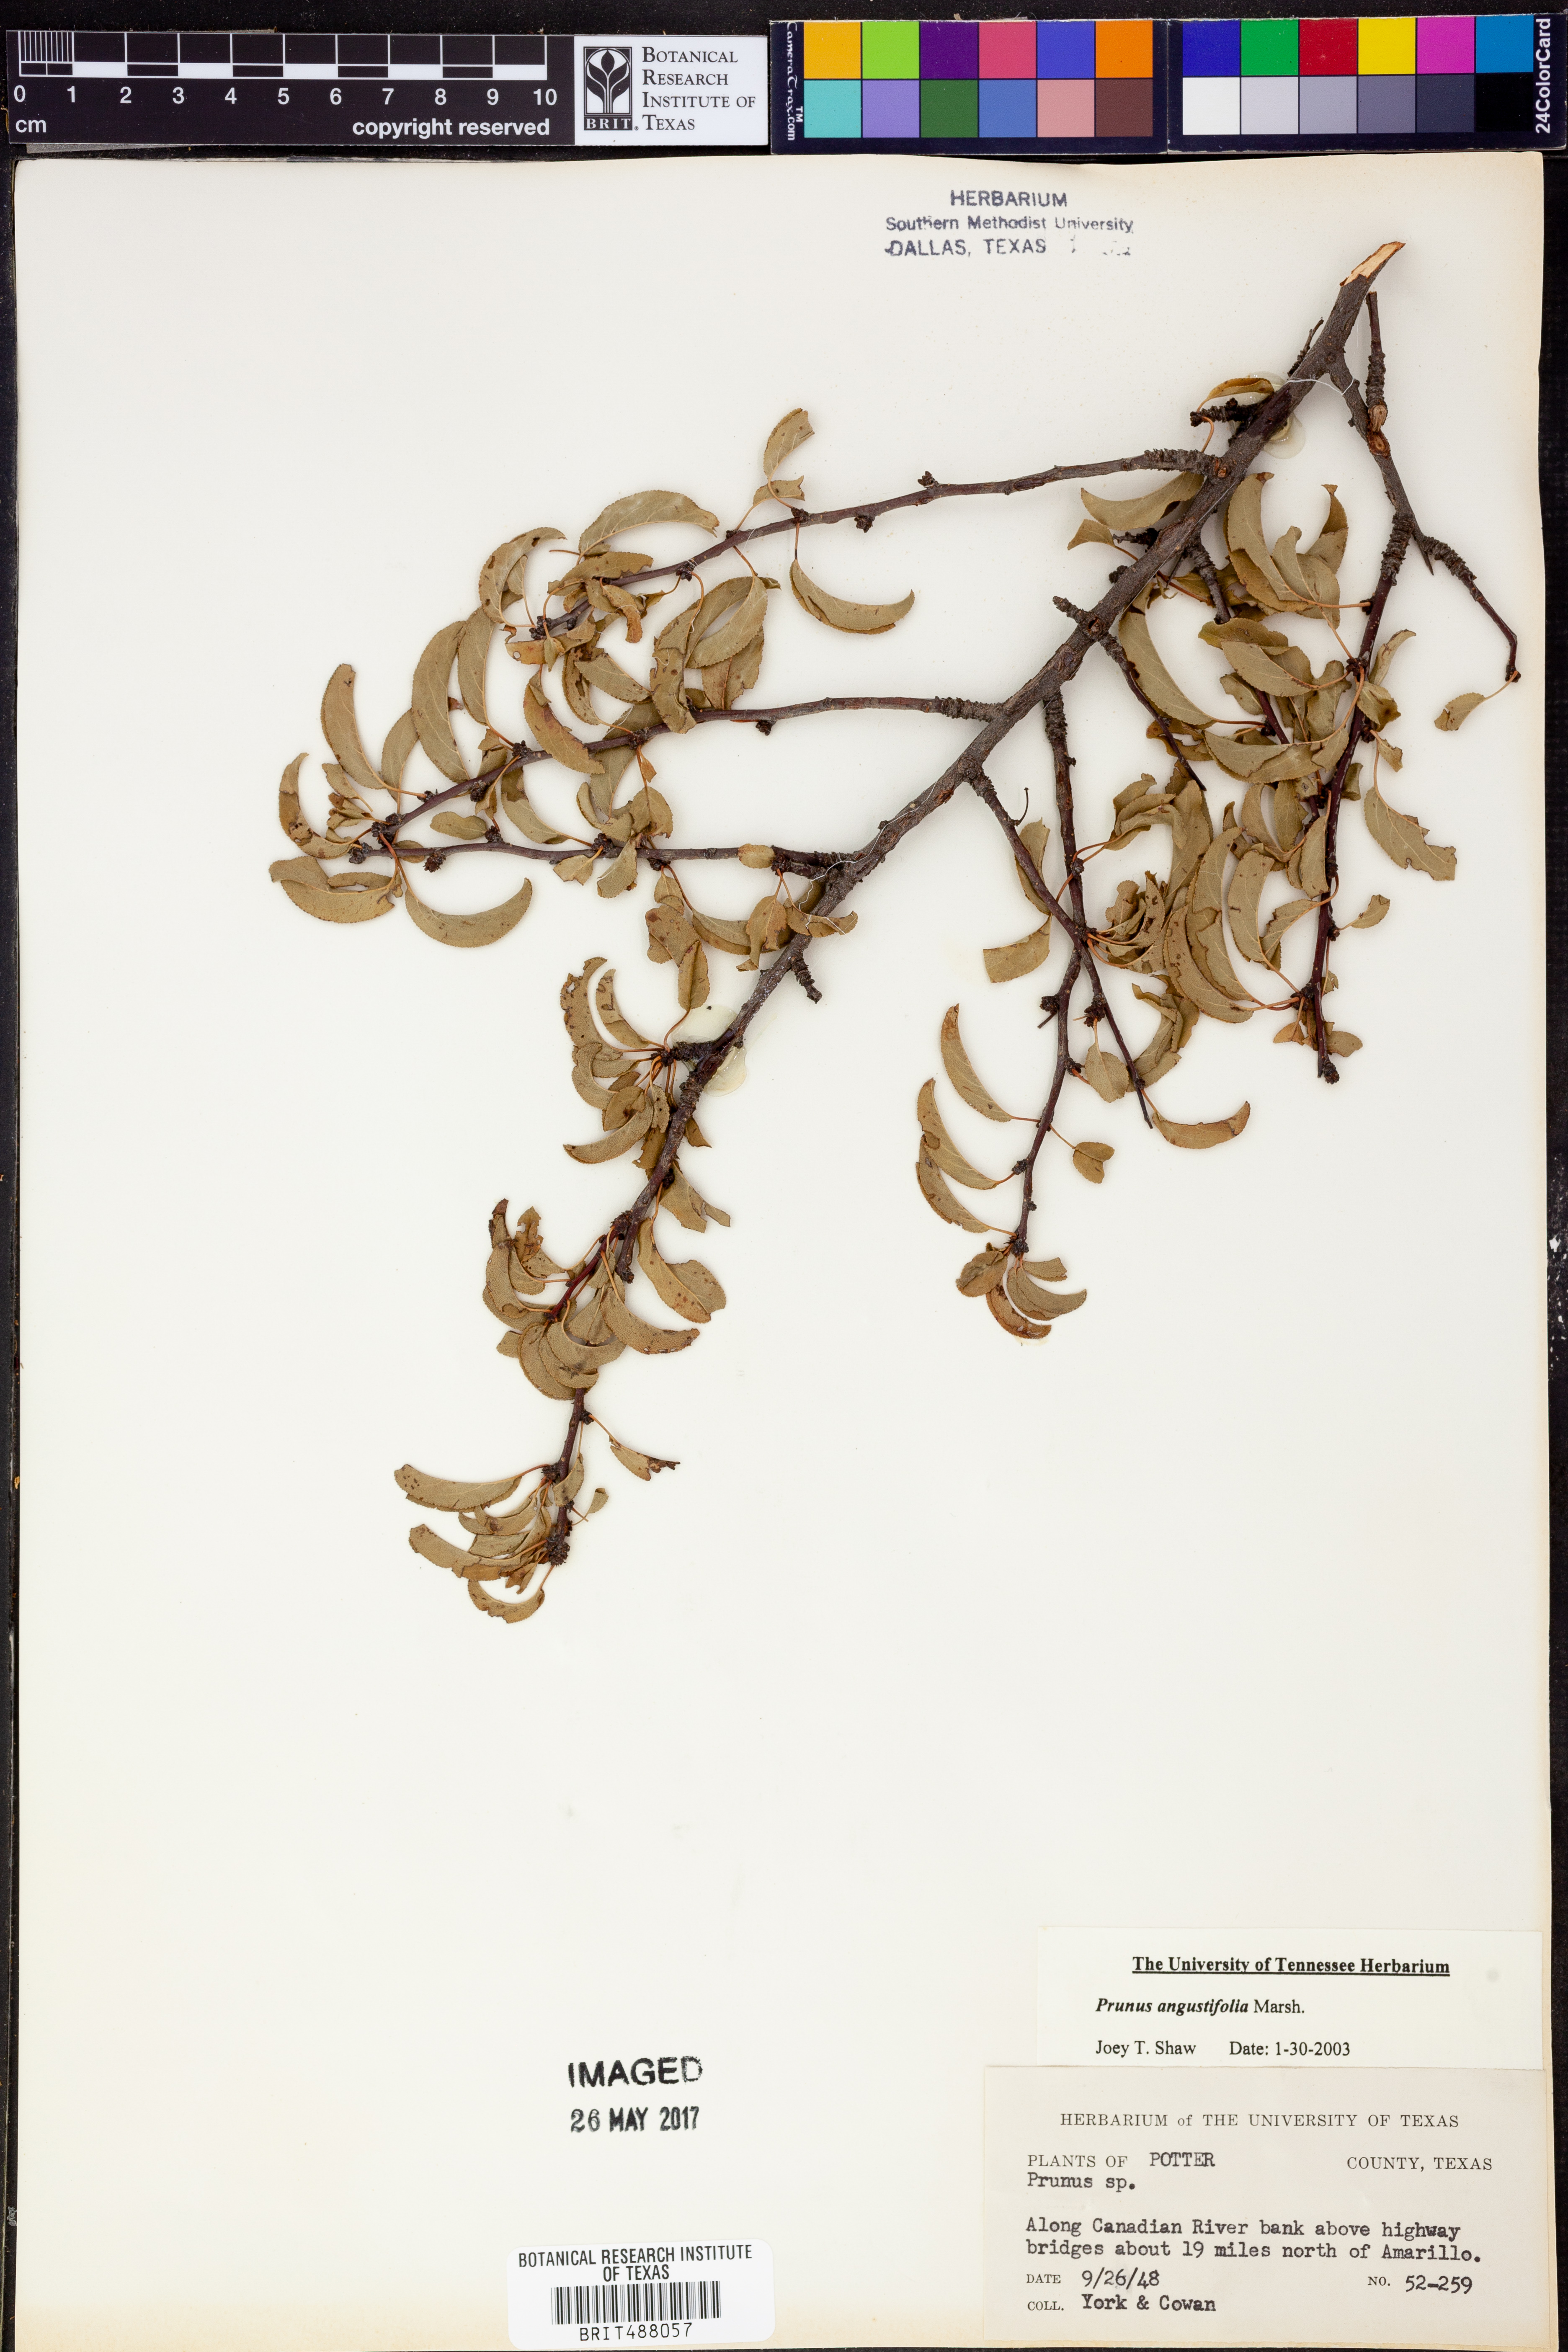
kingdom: Plantae
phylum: Tracheophyta
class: Magnoliopsida
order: Rosales
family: Rosaceae
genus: Prunus
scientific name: Prunus angustifolia
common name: Cherokee plum
